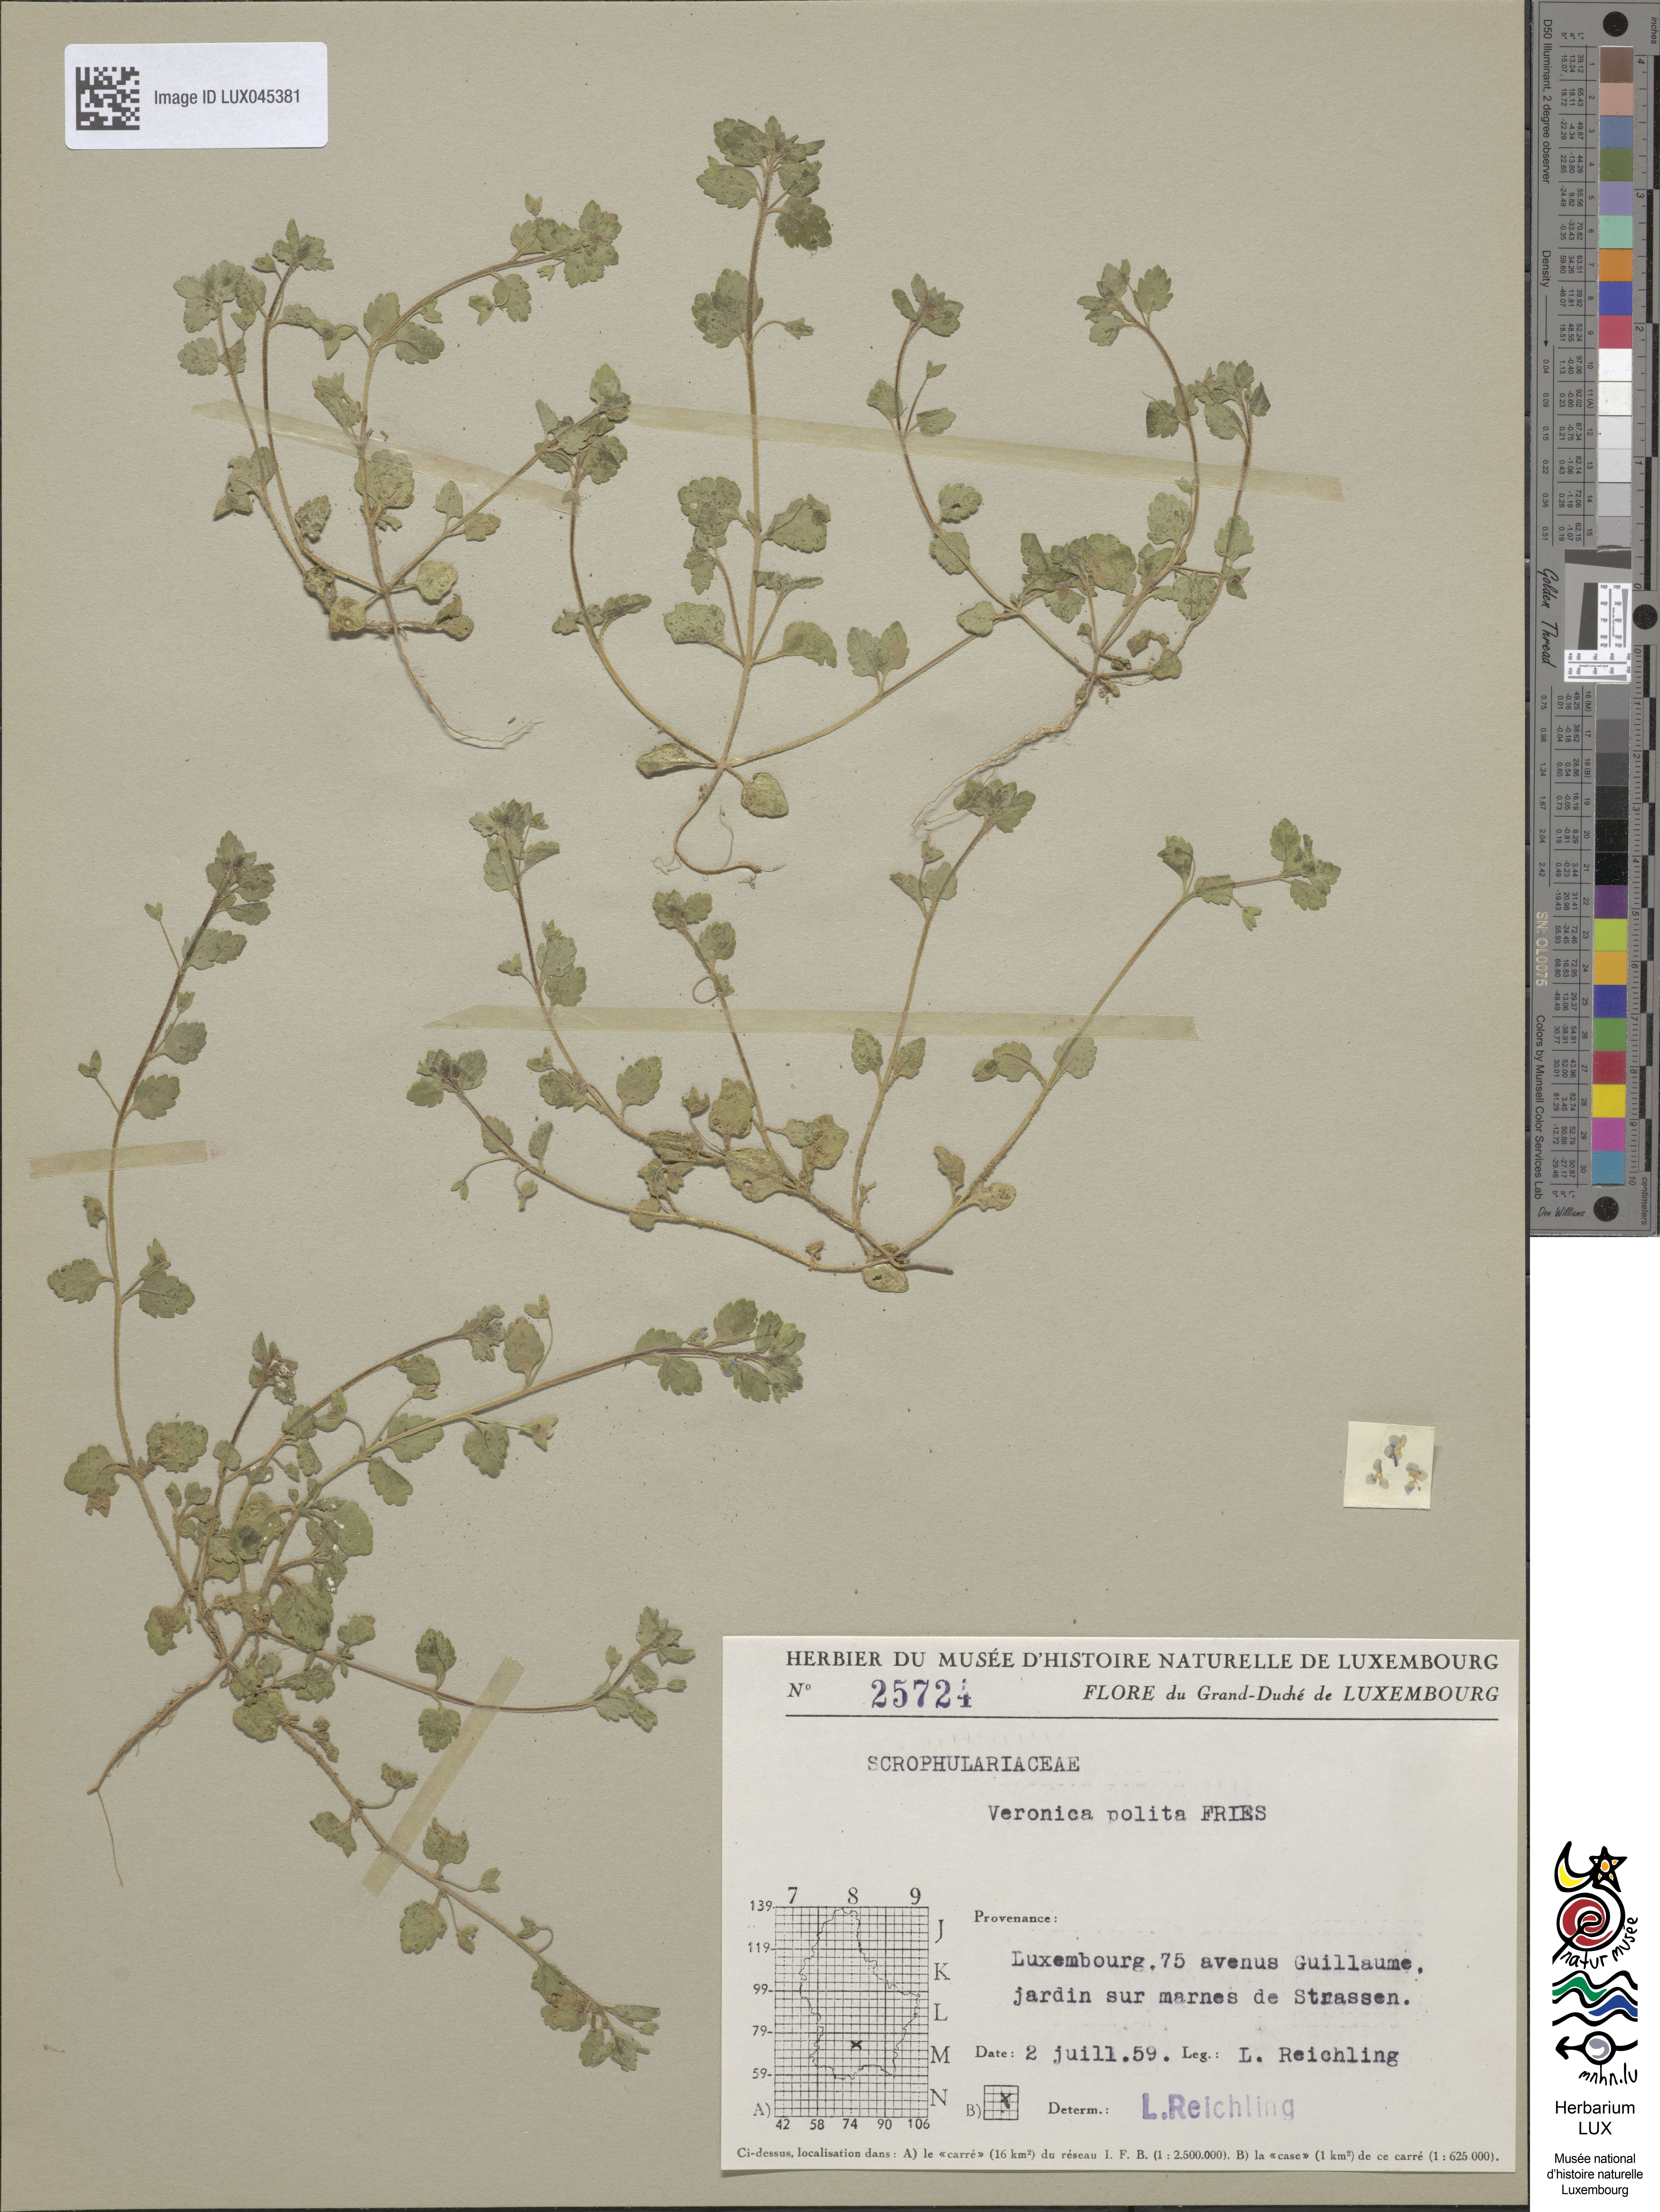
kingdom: Plantae
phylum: Tracheophyta
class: Magnoliopsida
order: Lamiales
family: Plantaginaceae
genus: Veronica
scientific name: Veronica polita
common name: Grey field-speedwell
